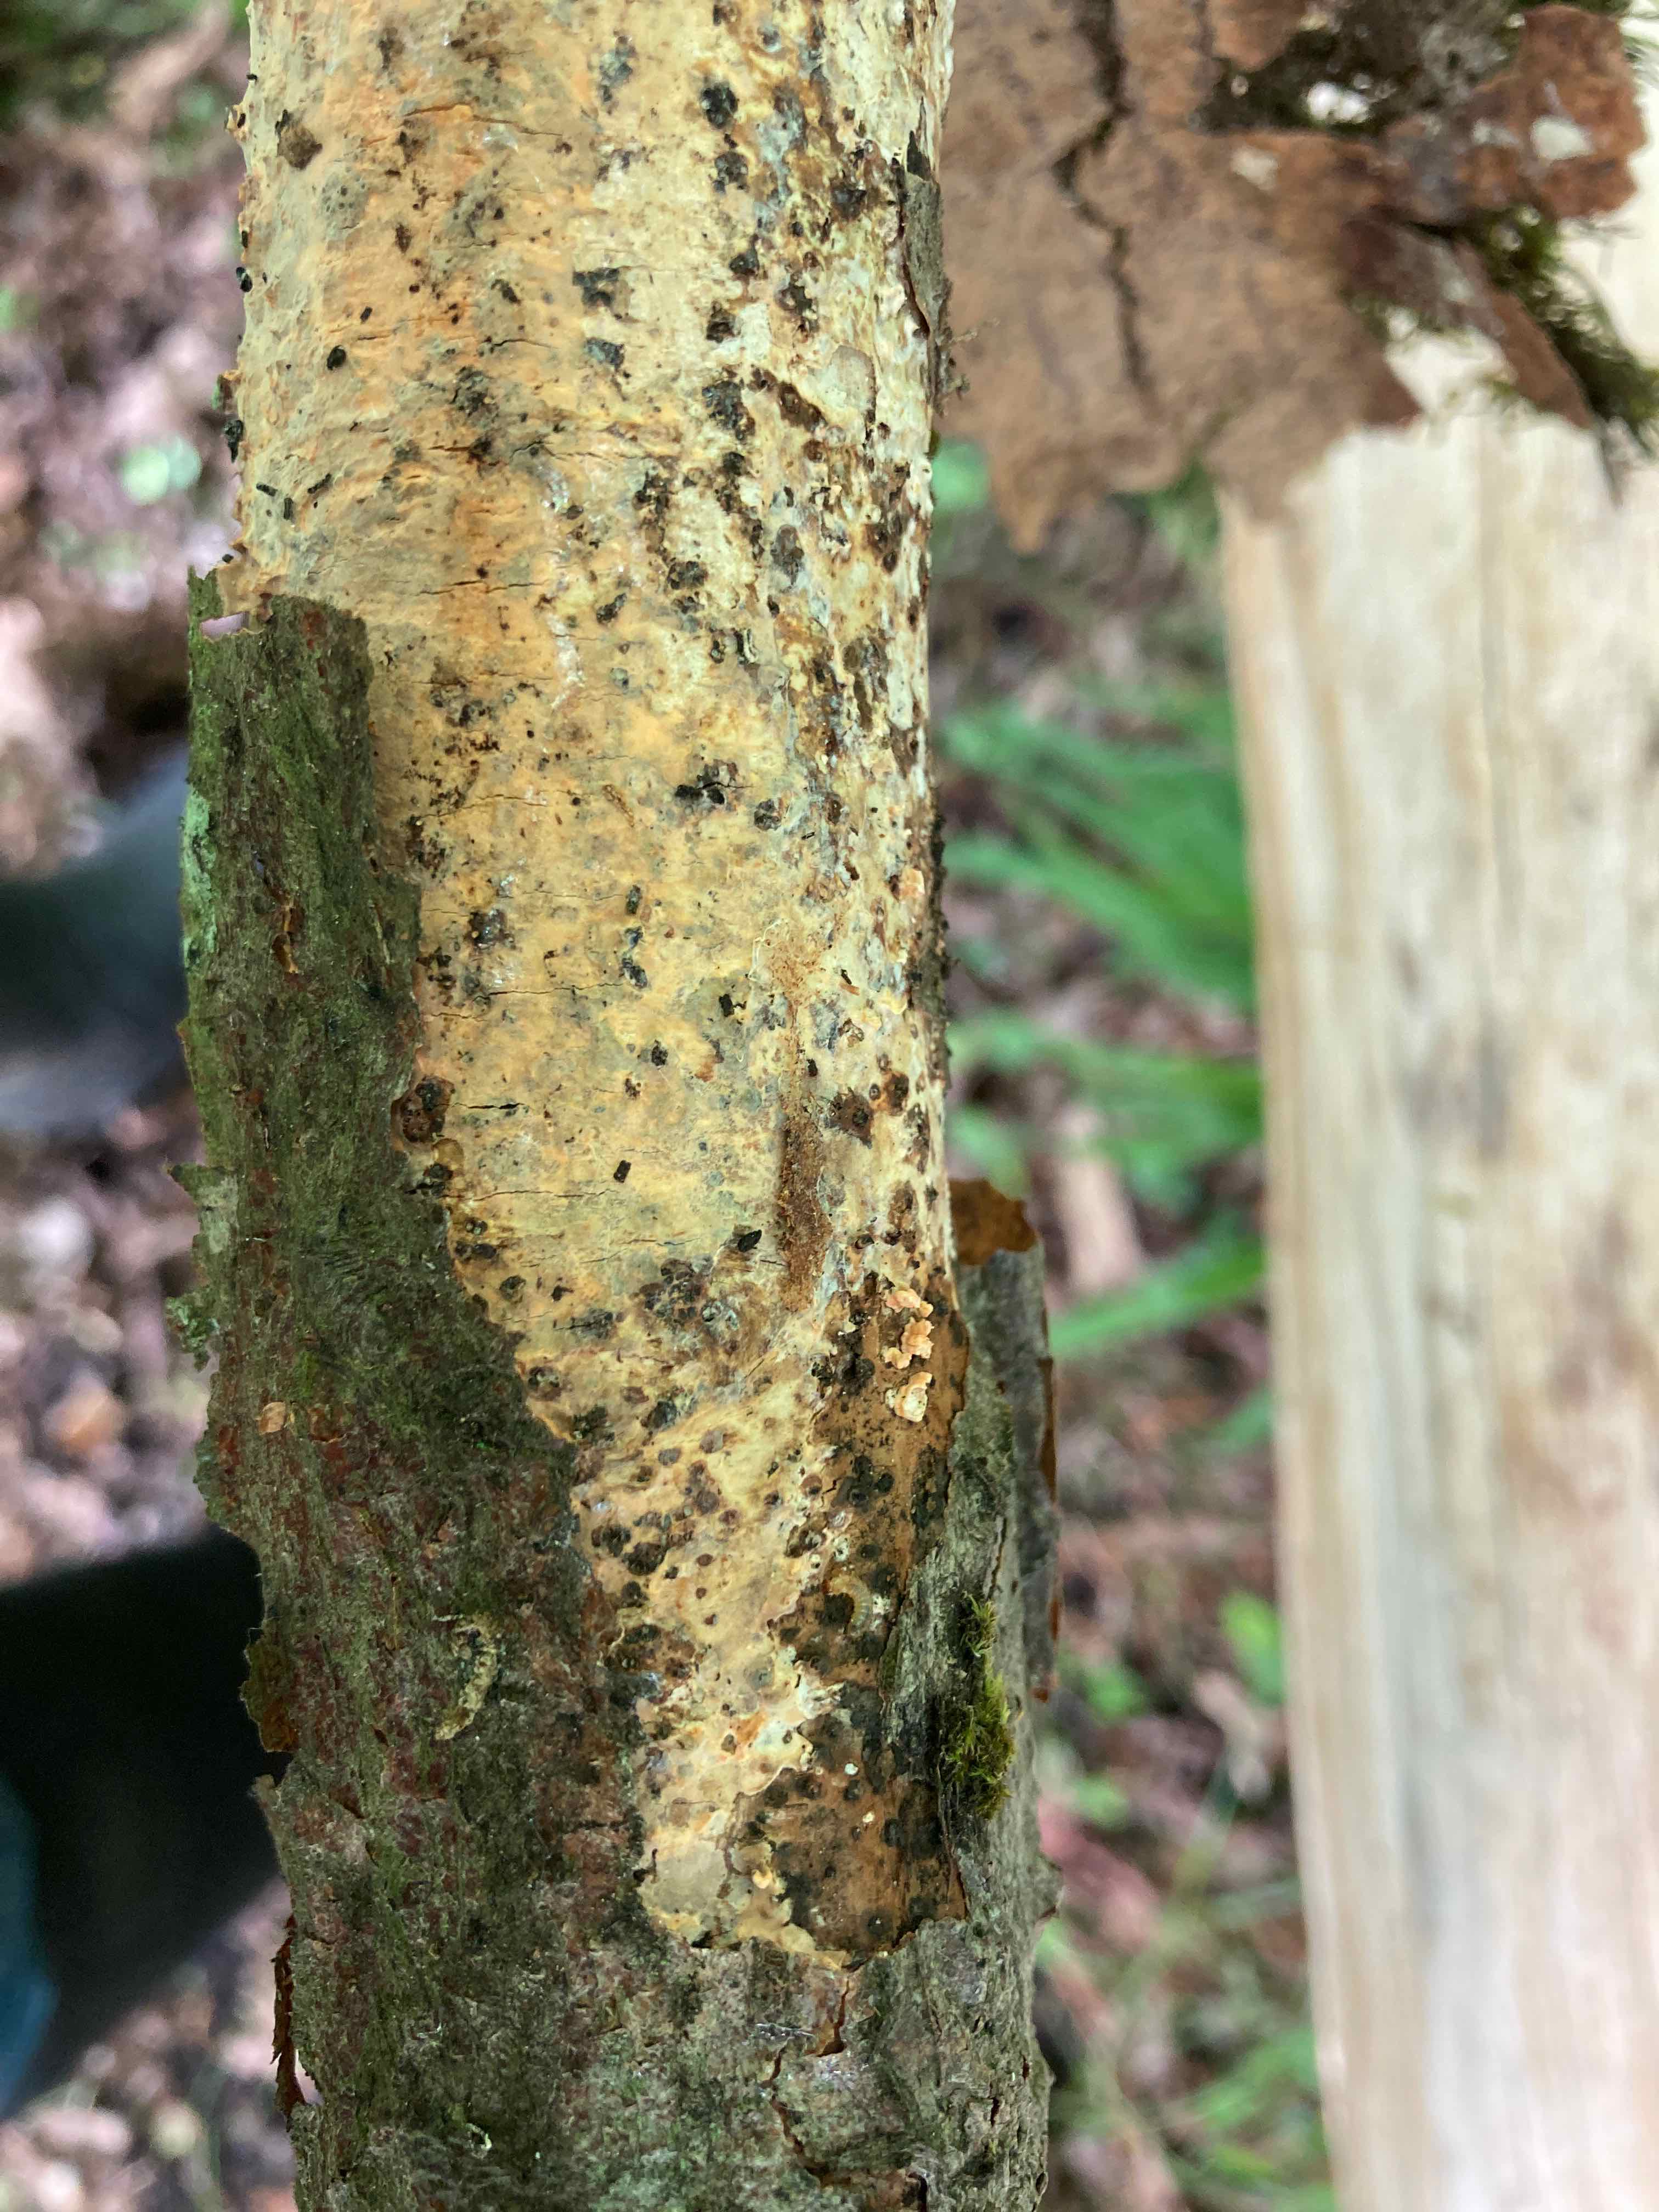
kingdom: Fungi
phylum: Basidiomycota
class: Agaricomycetes
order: Russulales
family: Peniophoraceae
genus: Peniophora
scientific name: Peniophora laeta
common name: tandet voksskind
